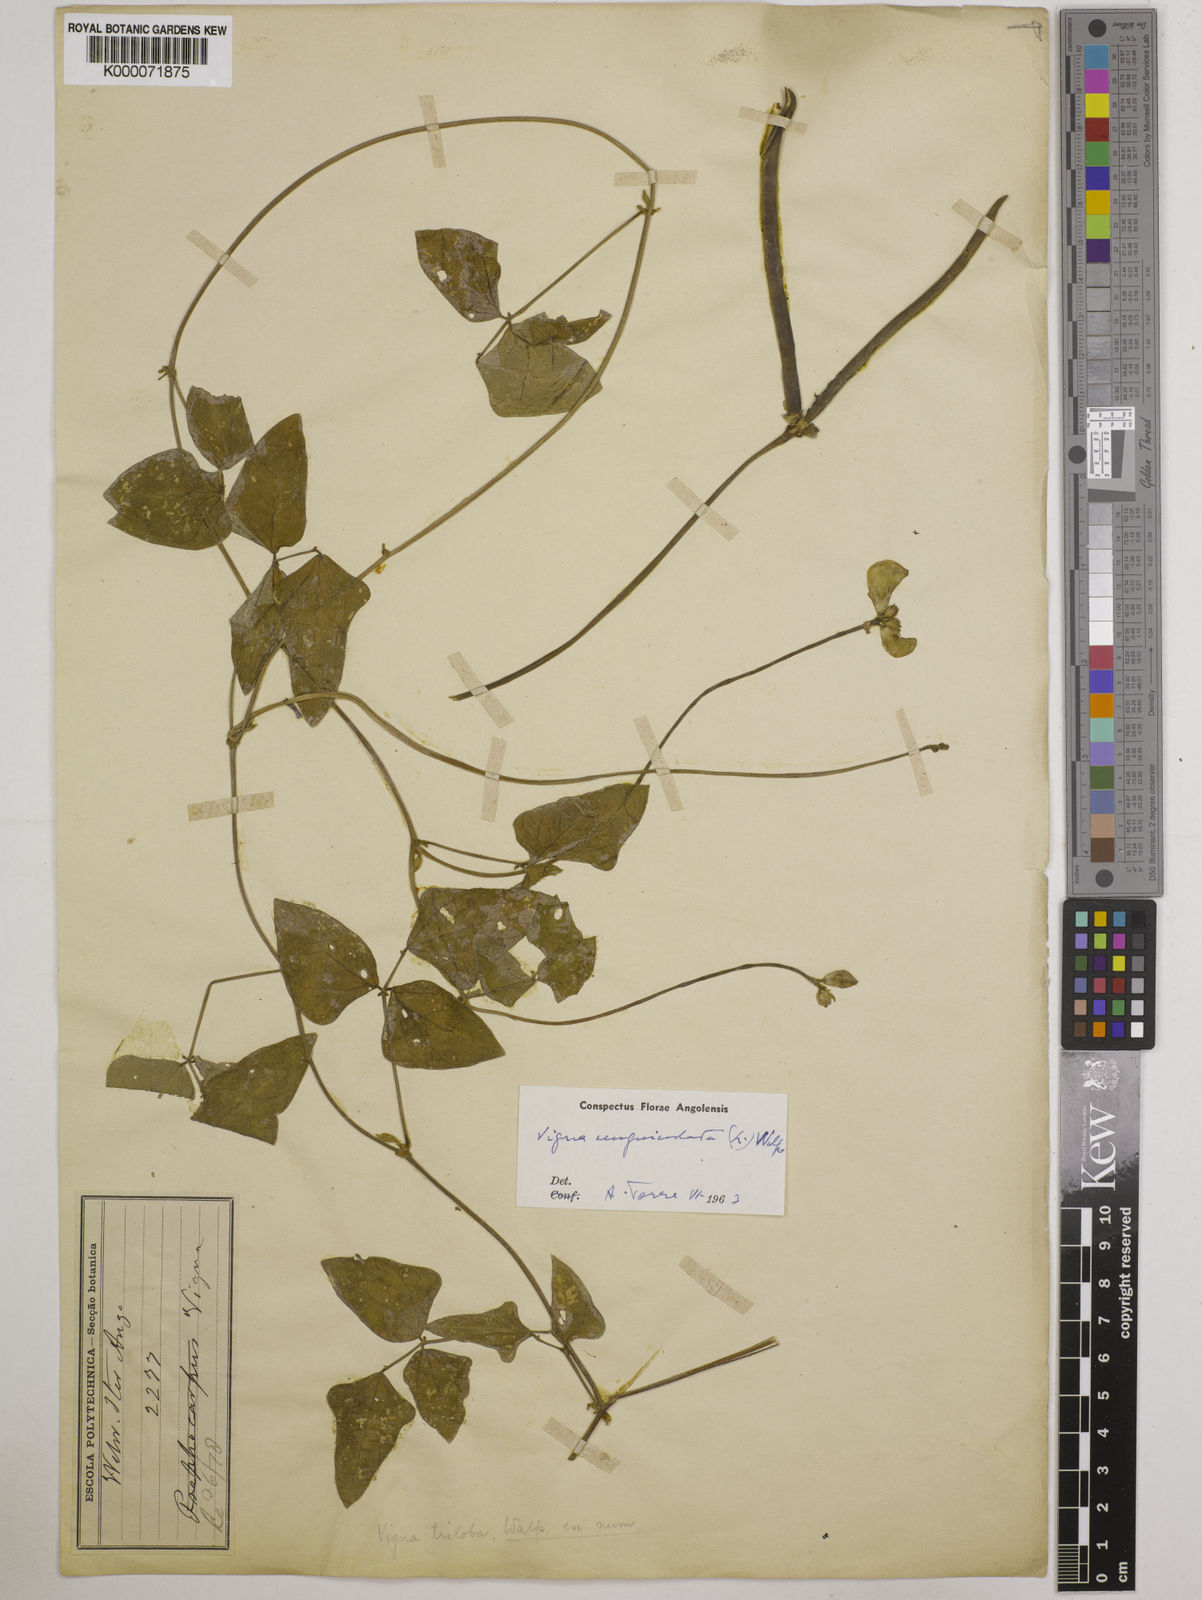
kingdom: Plantae
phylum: Tracheophyta
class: Magnoliopsida
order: Fabales
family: Fabaceae
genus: Vigna
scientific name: Vigna unguiculata
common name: Cowpea
